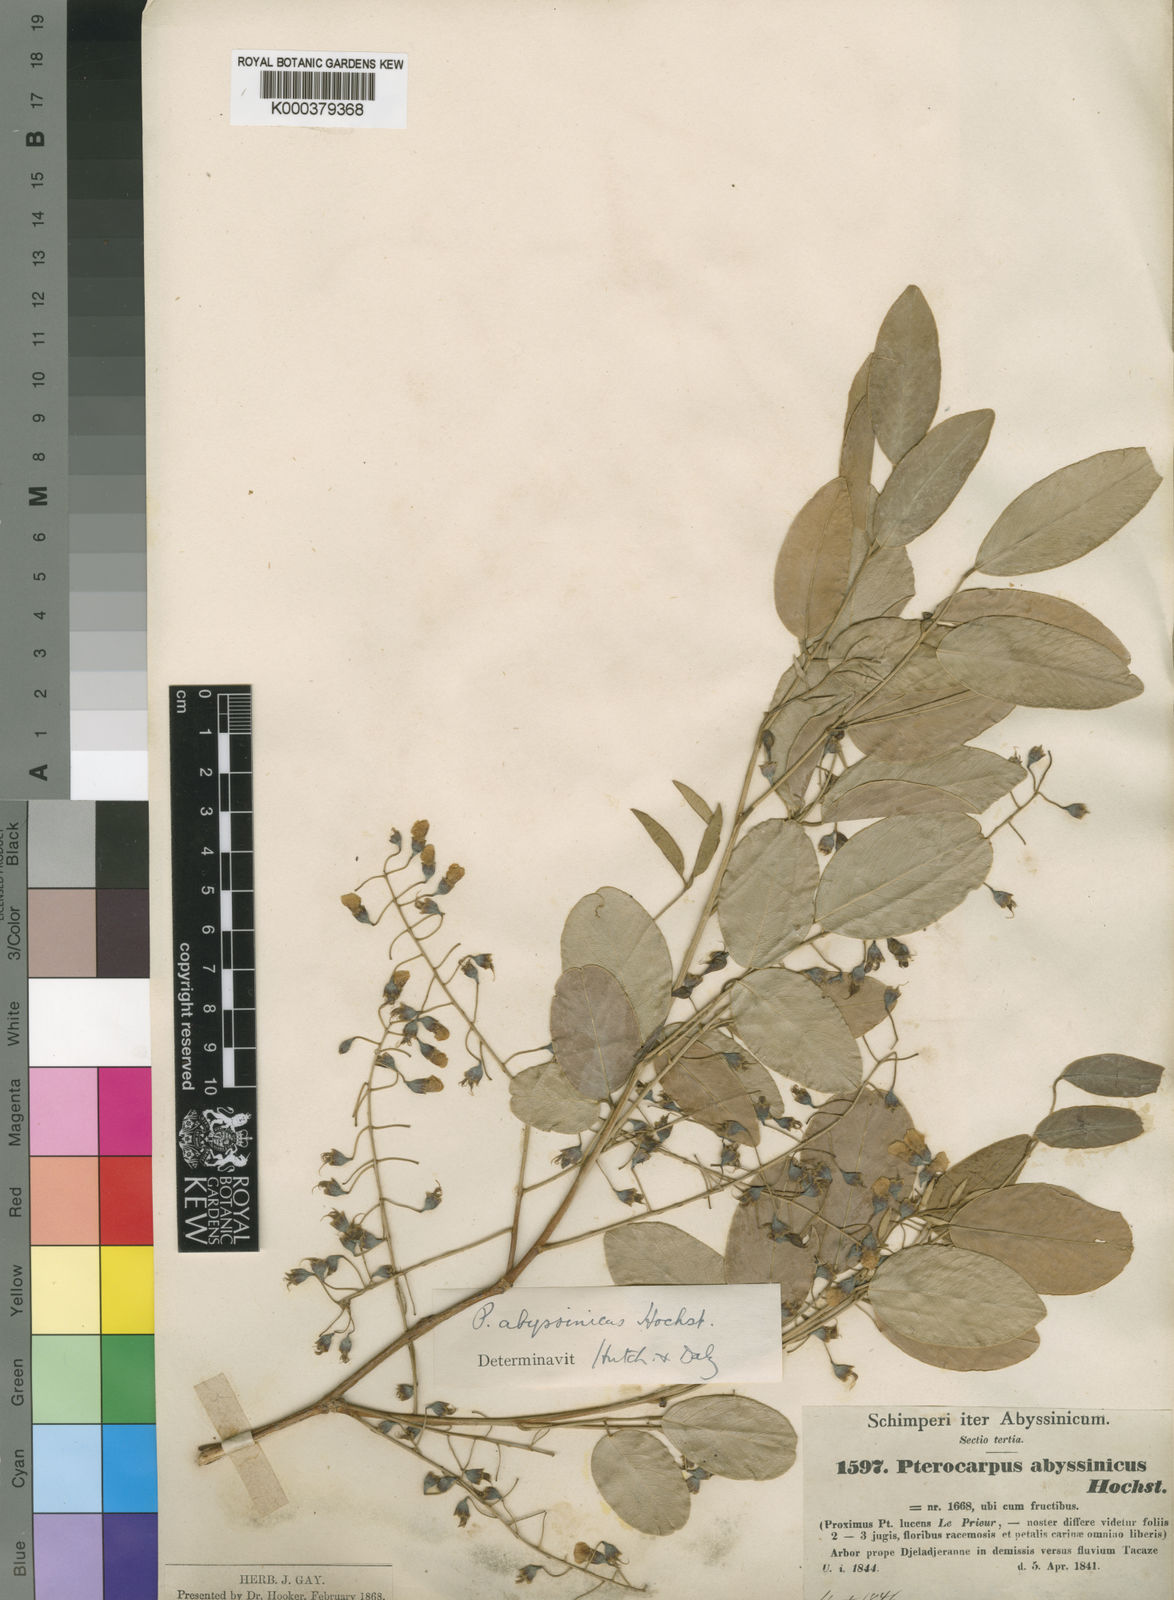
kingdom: Plantae
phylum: Tracheophyta
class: Magnoliopsida
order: Fabales
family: Fabaceae
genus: Pterocarpus
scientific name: Pterocarpus
